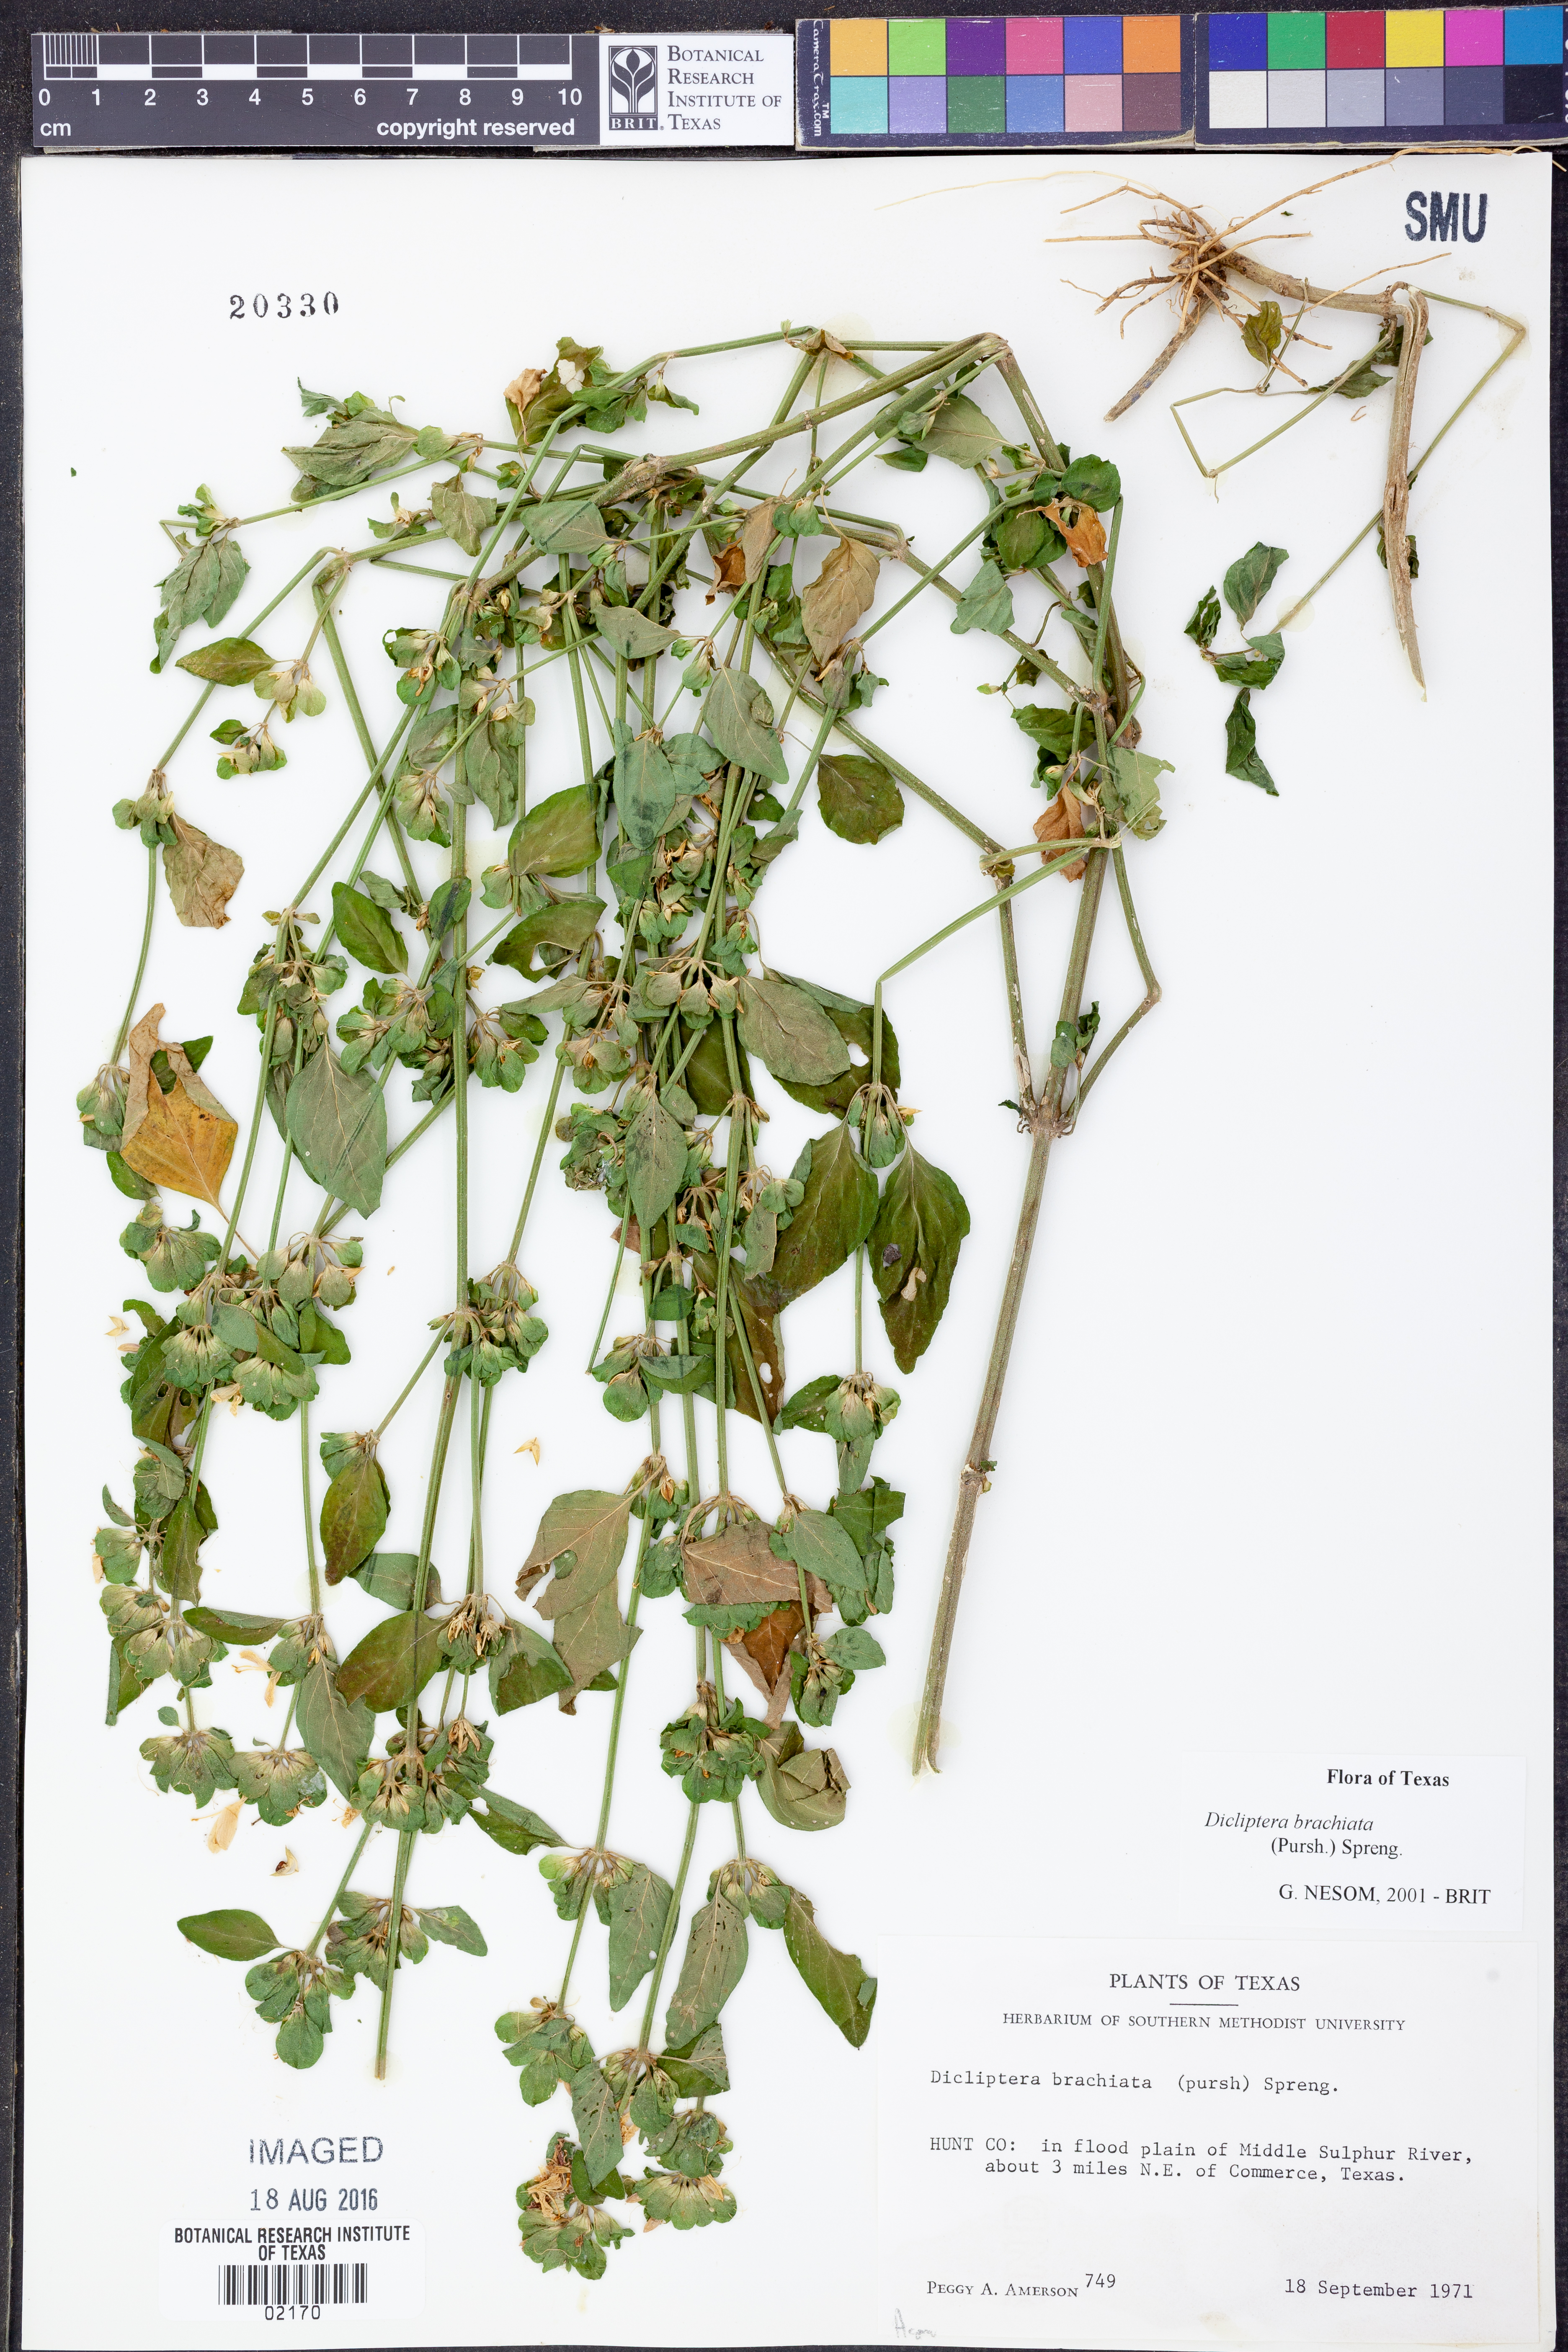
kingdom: Plantae
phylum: Tracheophyta
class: Magnoliopsida
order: Lamiales
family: Acanthaceae
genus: Dicliptera
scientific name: Dicliptera brachiata
